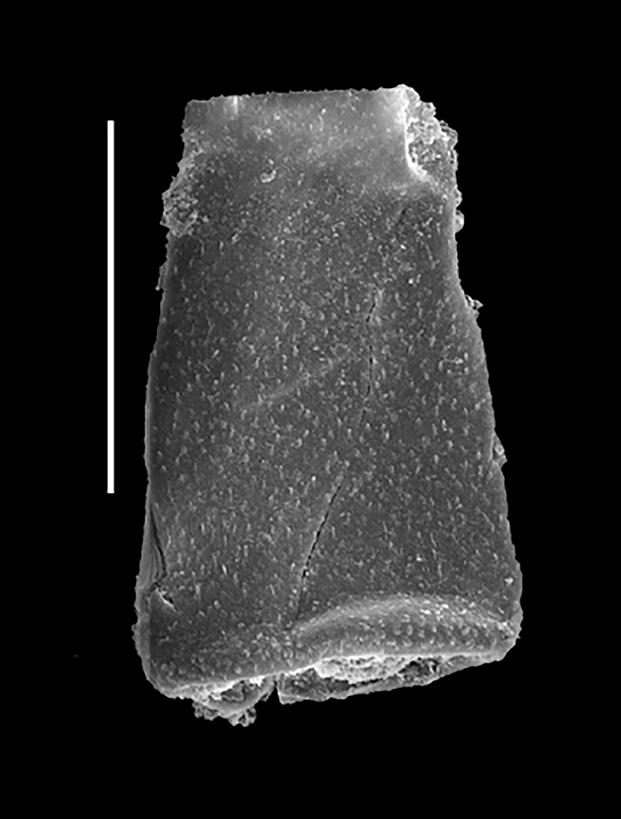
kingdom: Protozoa
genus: Belonechitina
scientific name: Belonechitina
